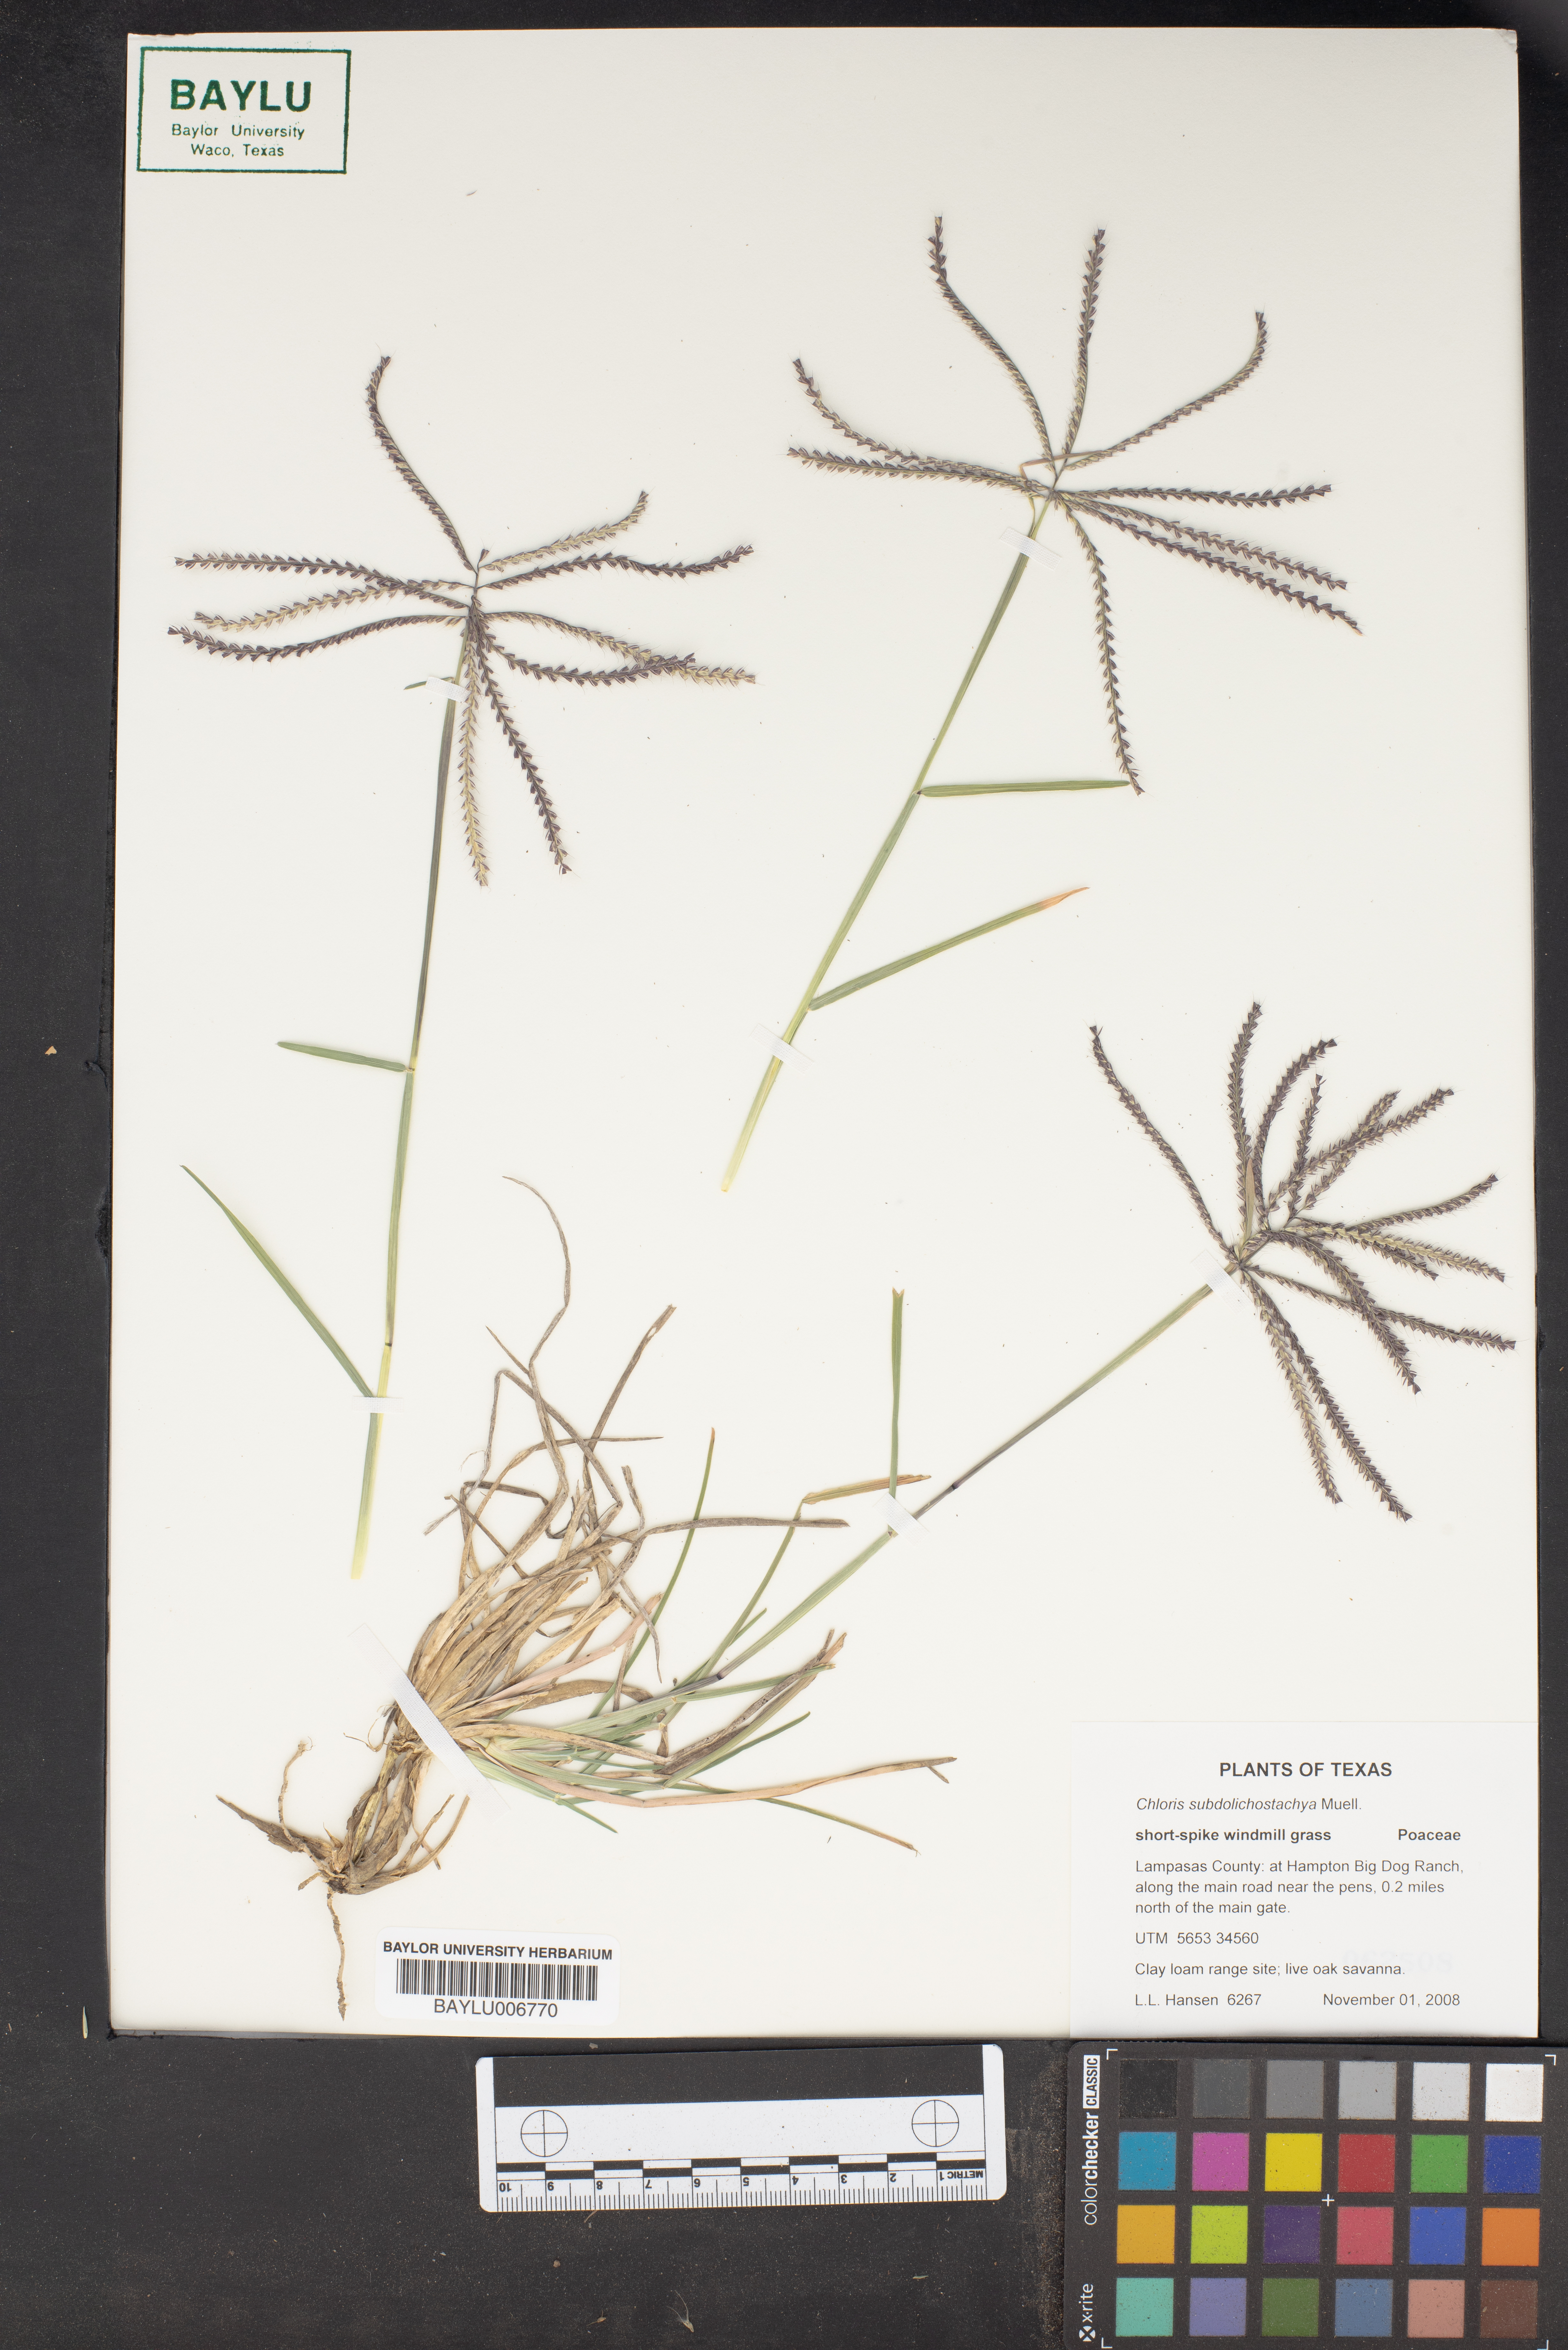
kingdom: Plantae
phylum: Tracheophyta
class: Liliopsida
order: Poales
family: Poaceae
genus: Chloris
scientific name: Chloris subdolichostachya
